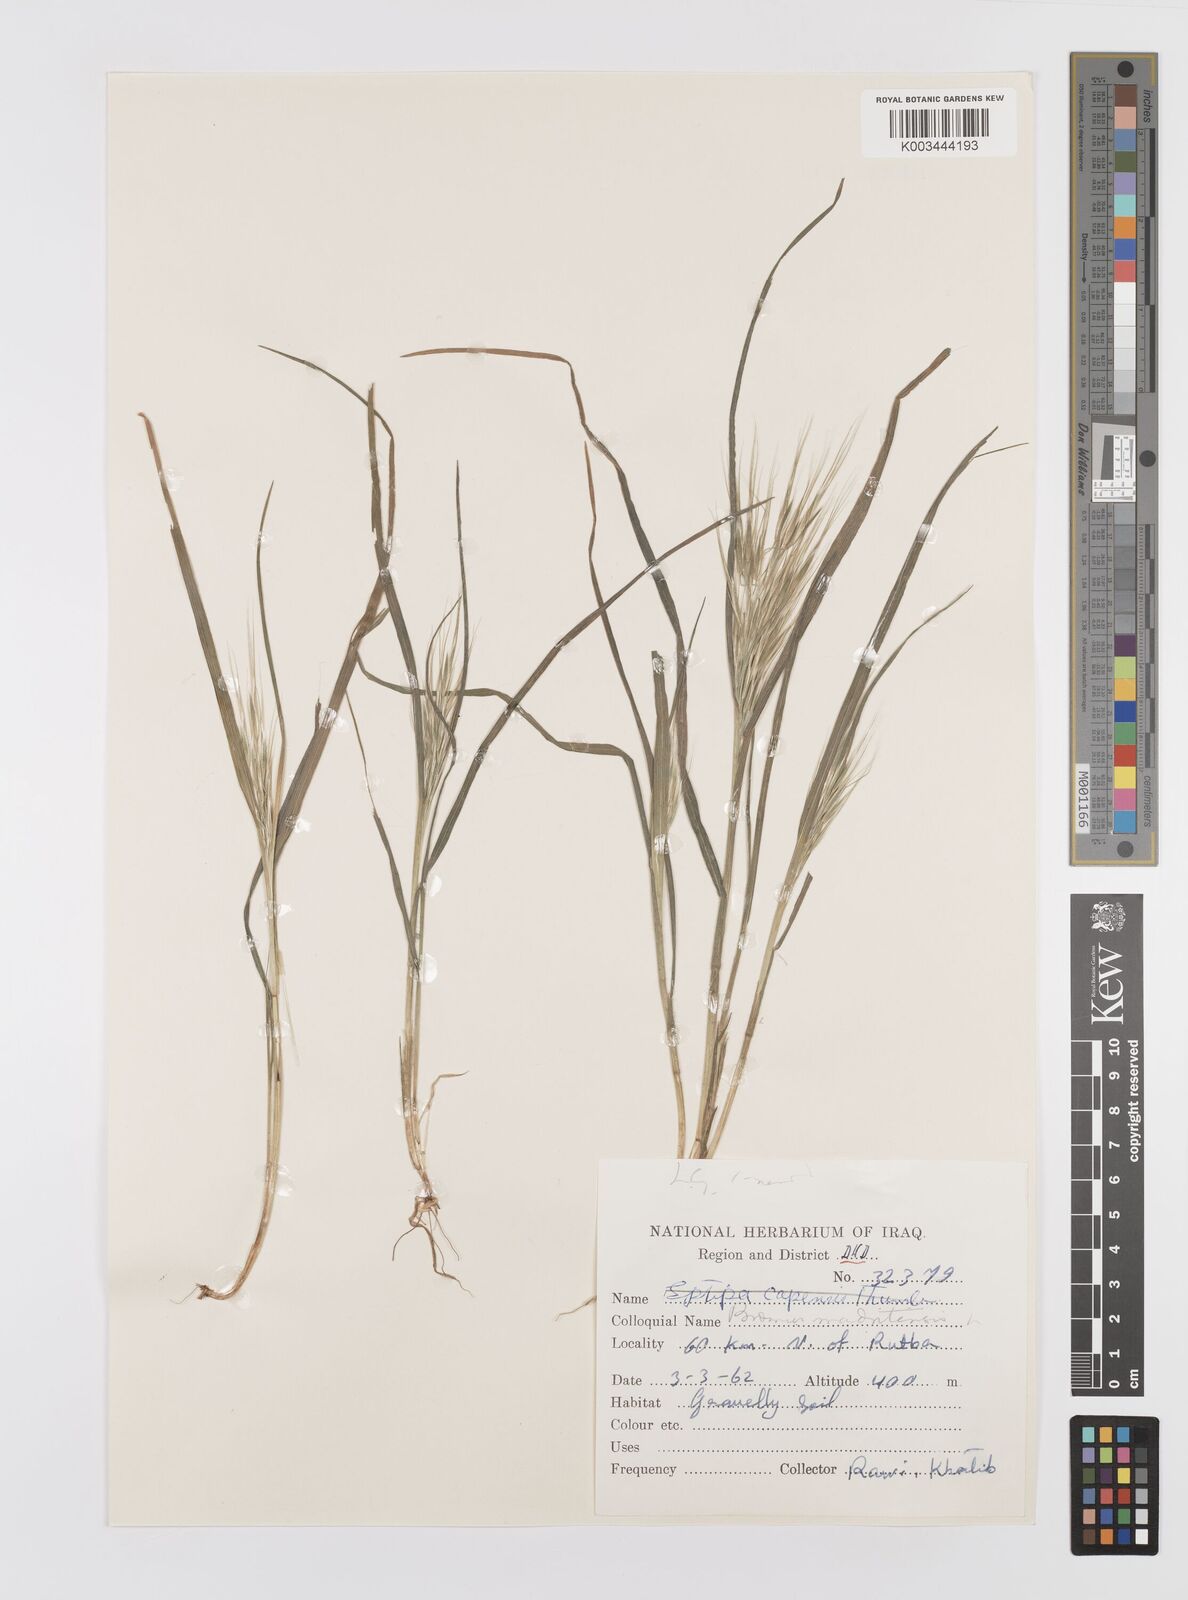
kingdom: Plantae
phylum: Tracheophyta
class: Liliopsida
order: Poales
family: Poaceae
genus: Bromus
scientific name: Bromus madritensis
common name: Compact brome
